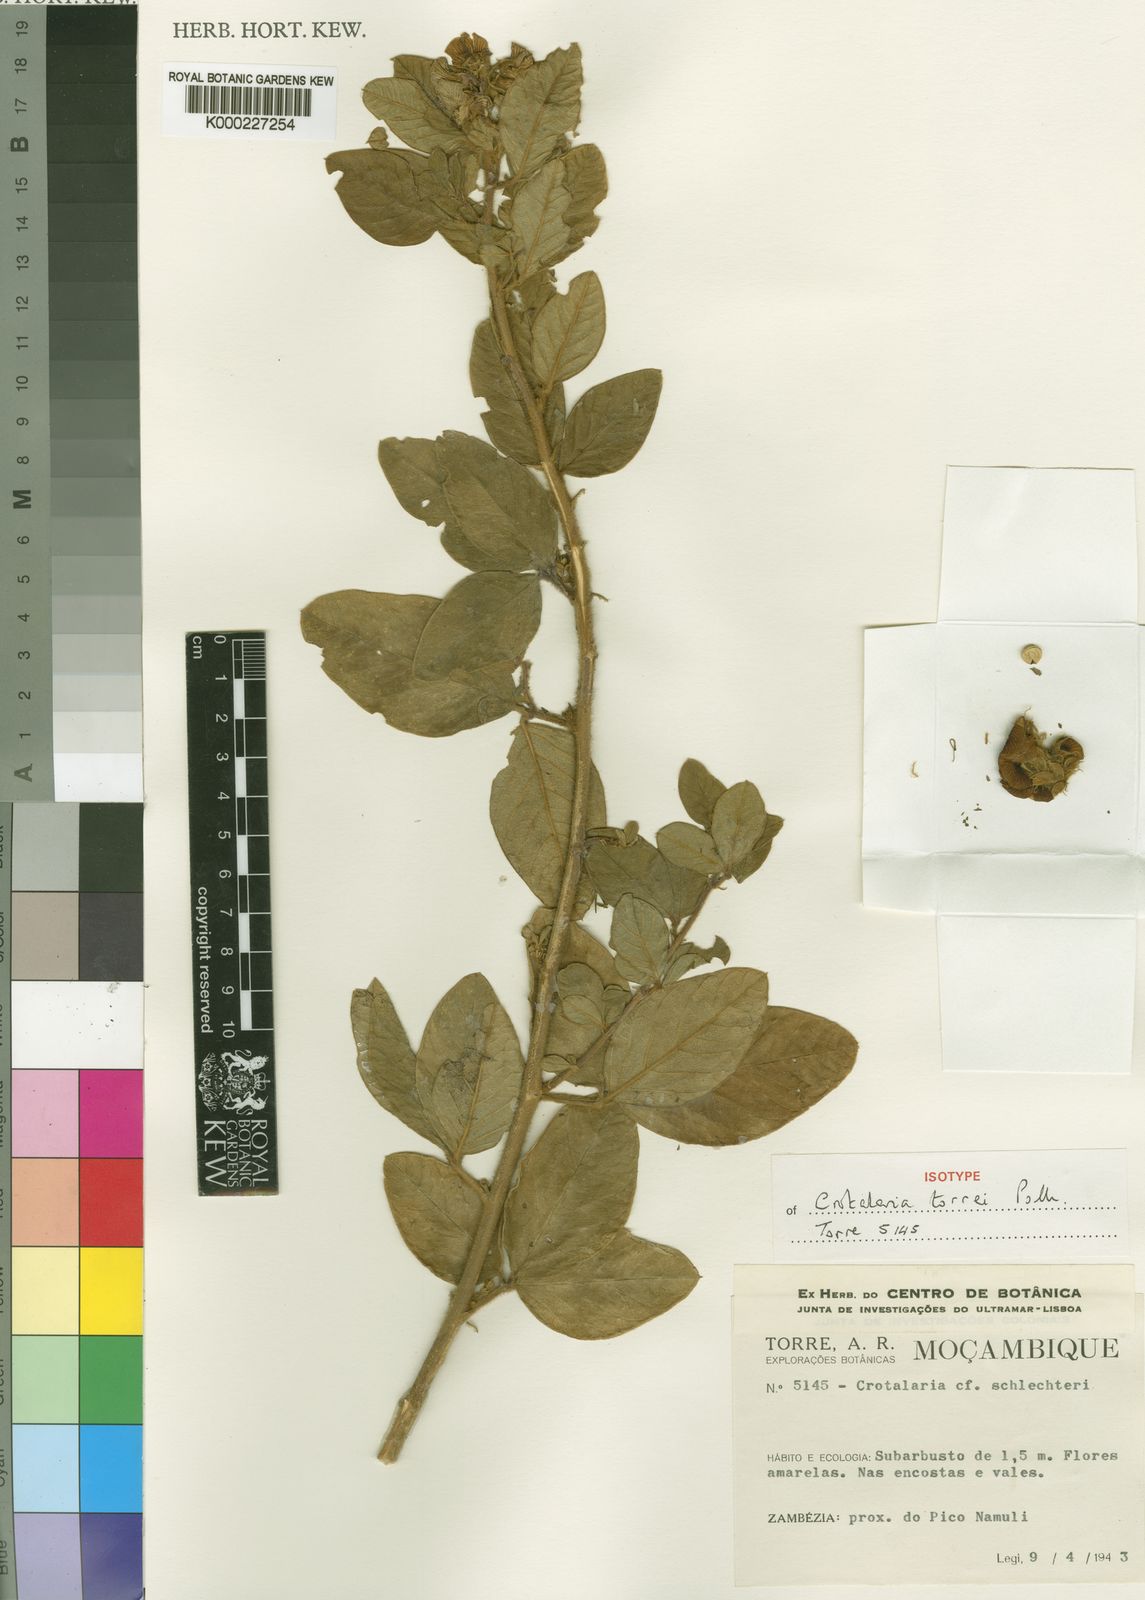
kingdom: Plantae
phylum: Tracheophyta
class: Magnoliopsida
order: Fabales
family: Fabaceae
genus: Crotalaria
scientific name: Crotalaria torrei
